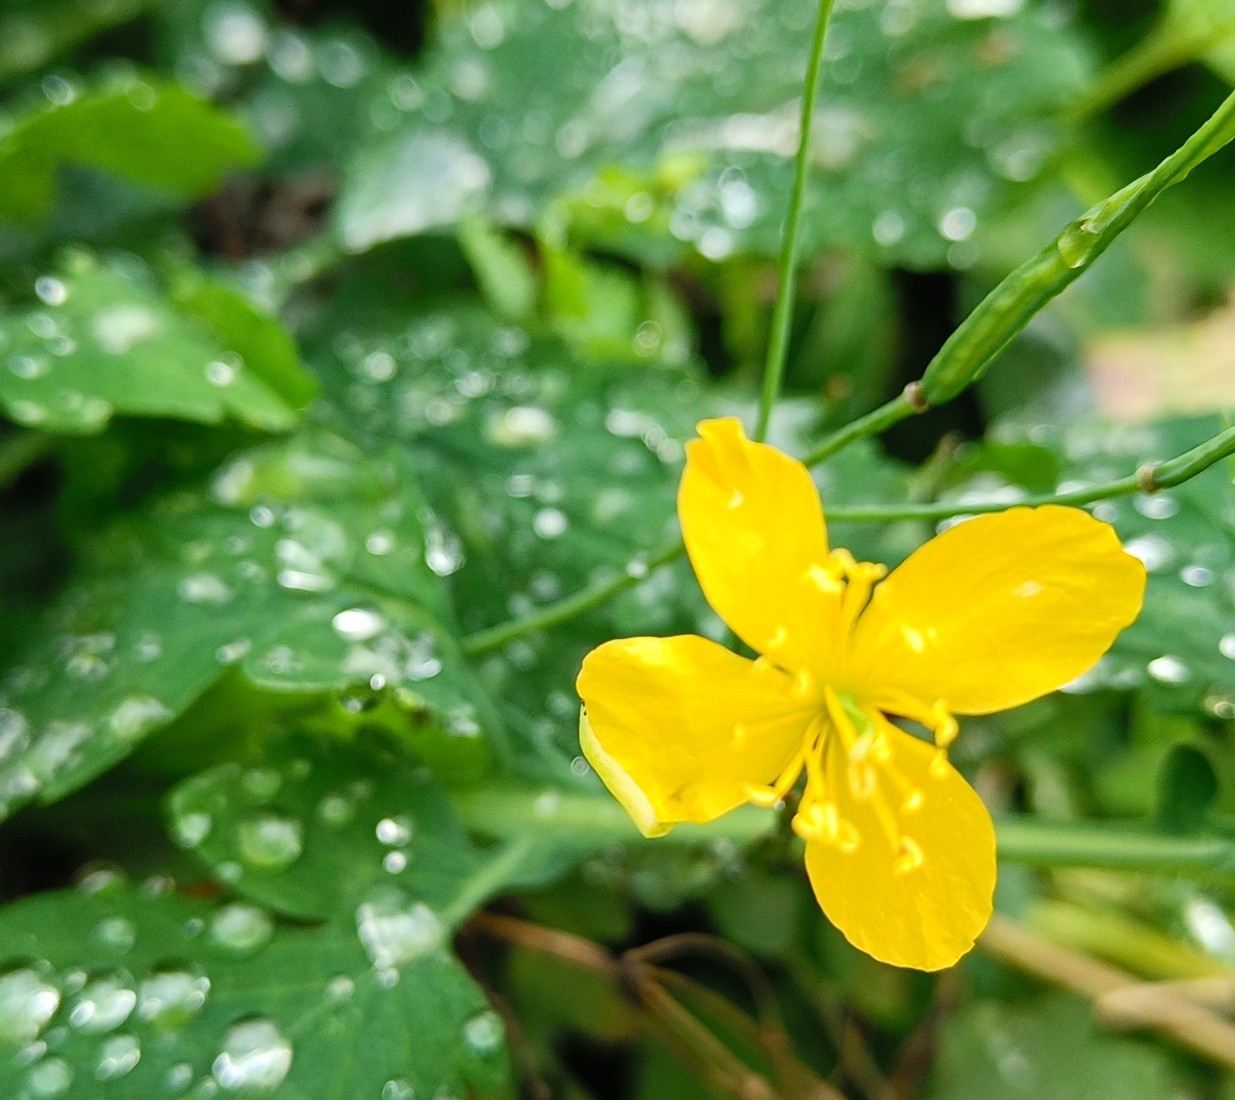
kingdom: Plantae
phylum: Tracheophyta
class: Magnoliopsida
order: Ranunculales
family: Papaveraceae
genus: Chelidonium
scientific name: Chelidonium majus
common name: Svaleurt
